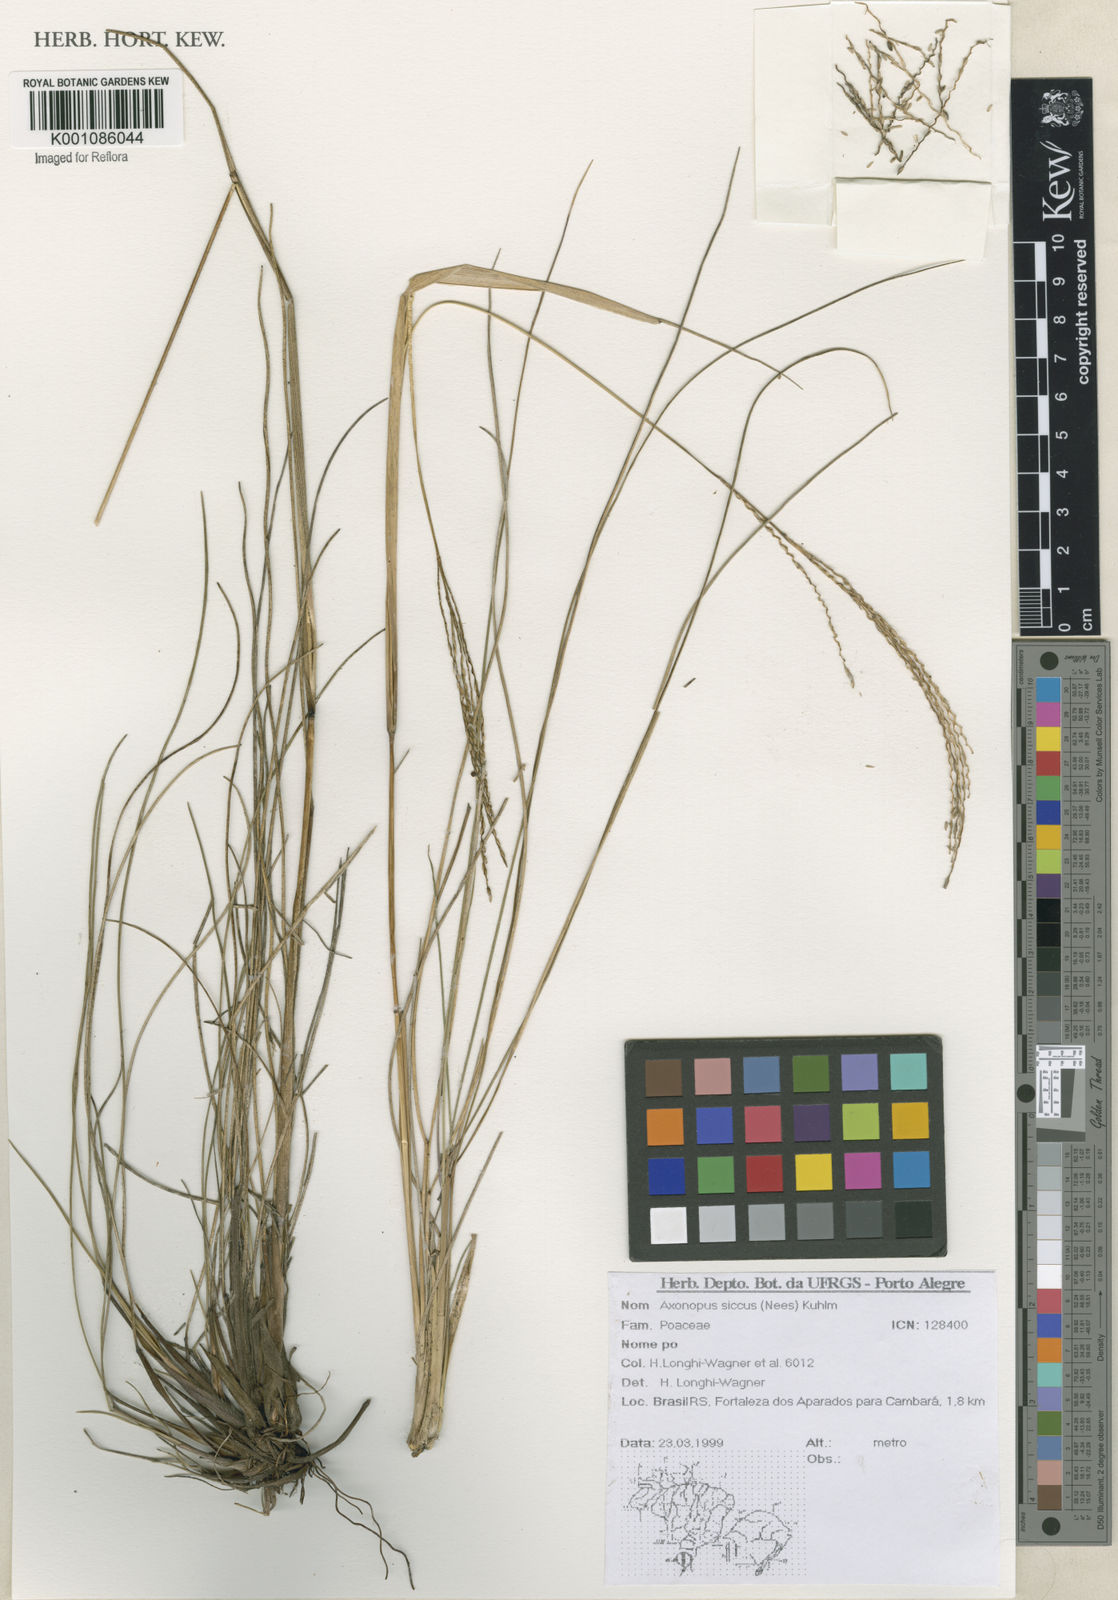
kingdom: Plantae
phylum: Tracheophyta
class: Liliopsida
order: Poales
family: Poaceae
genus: Axonopus
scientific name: Axonopus siccus
